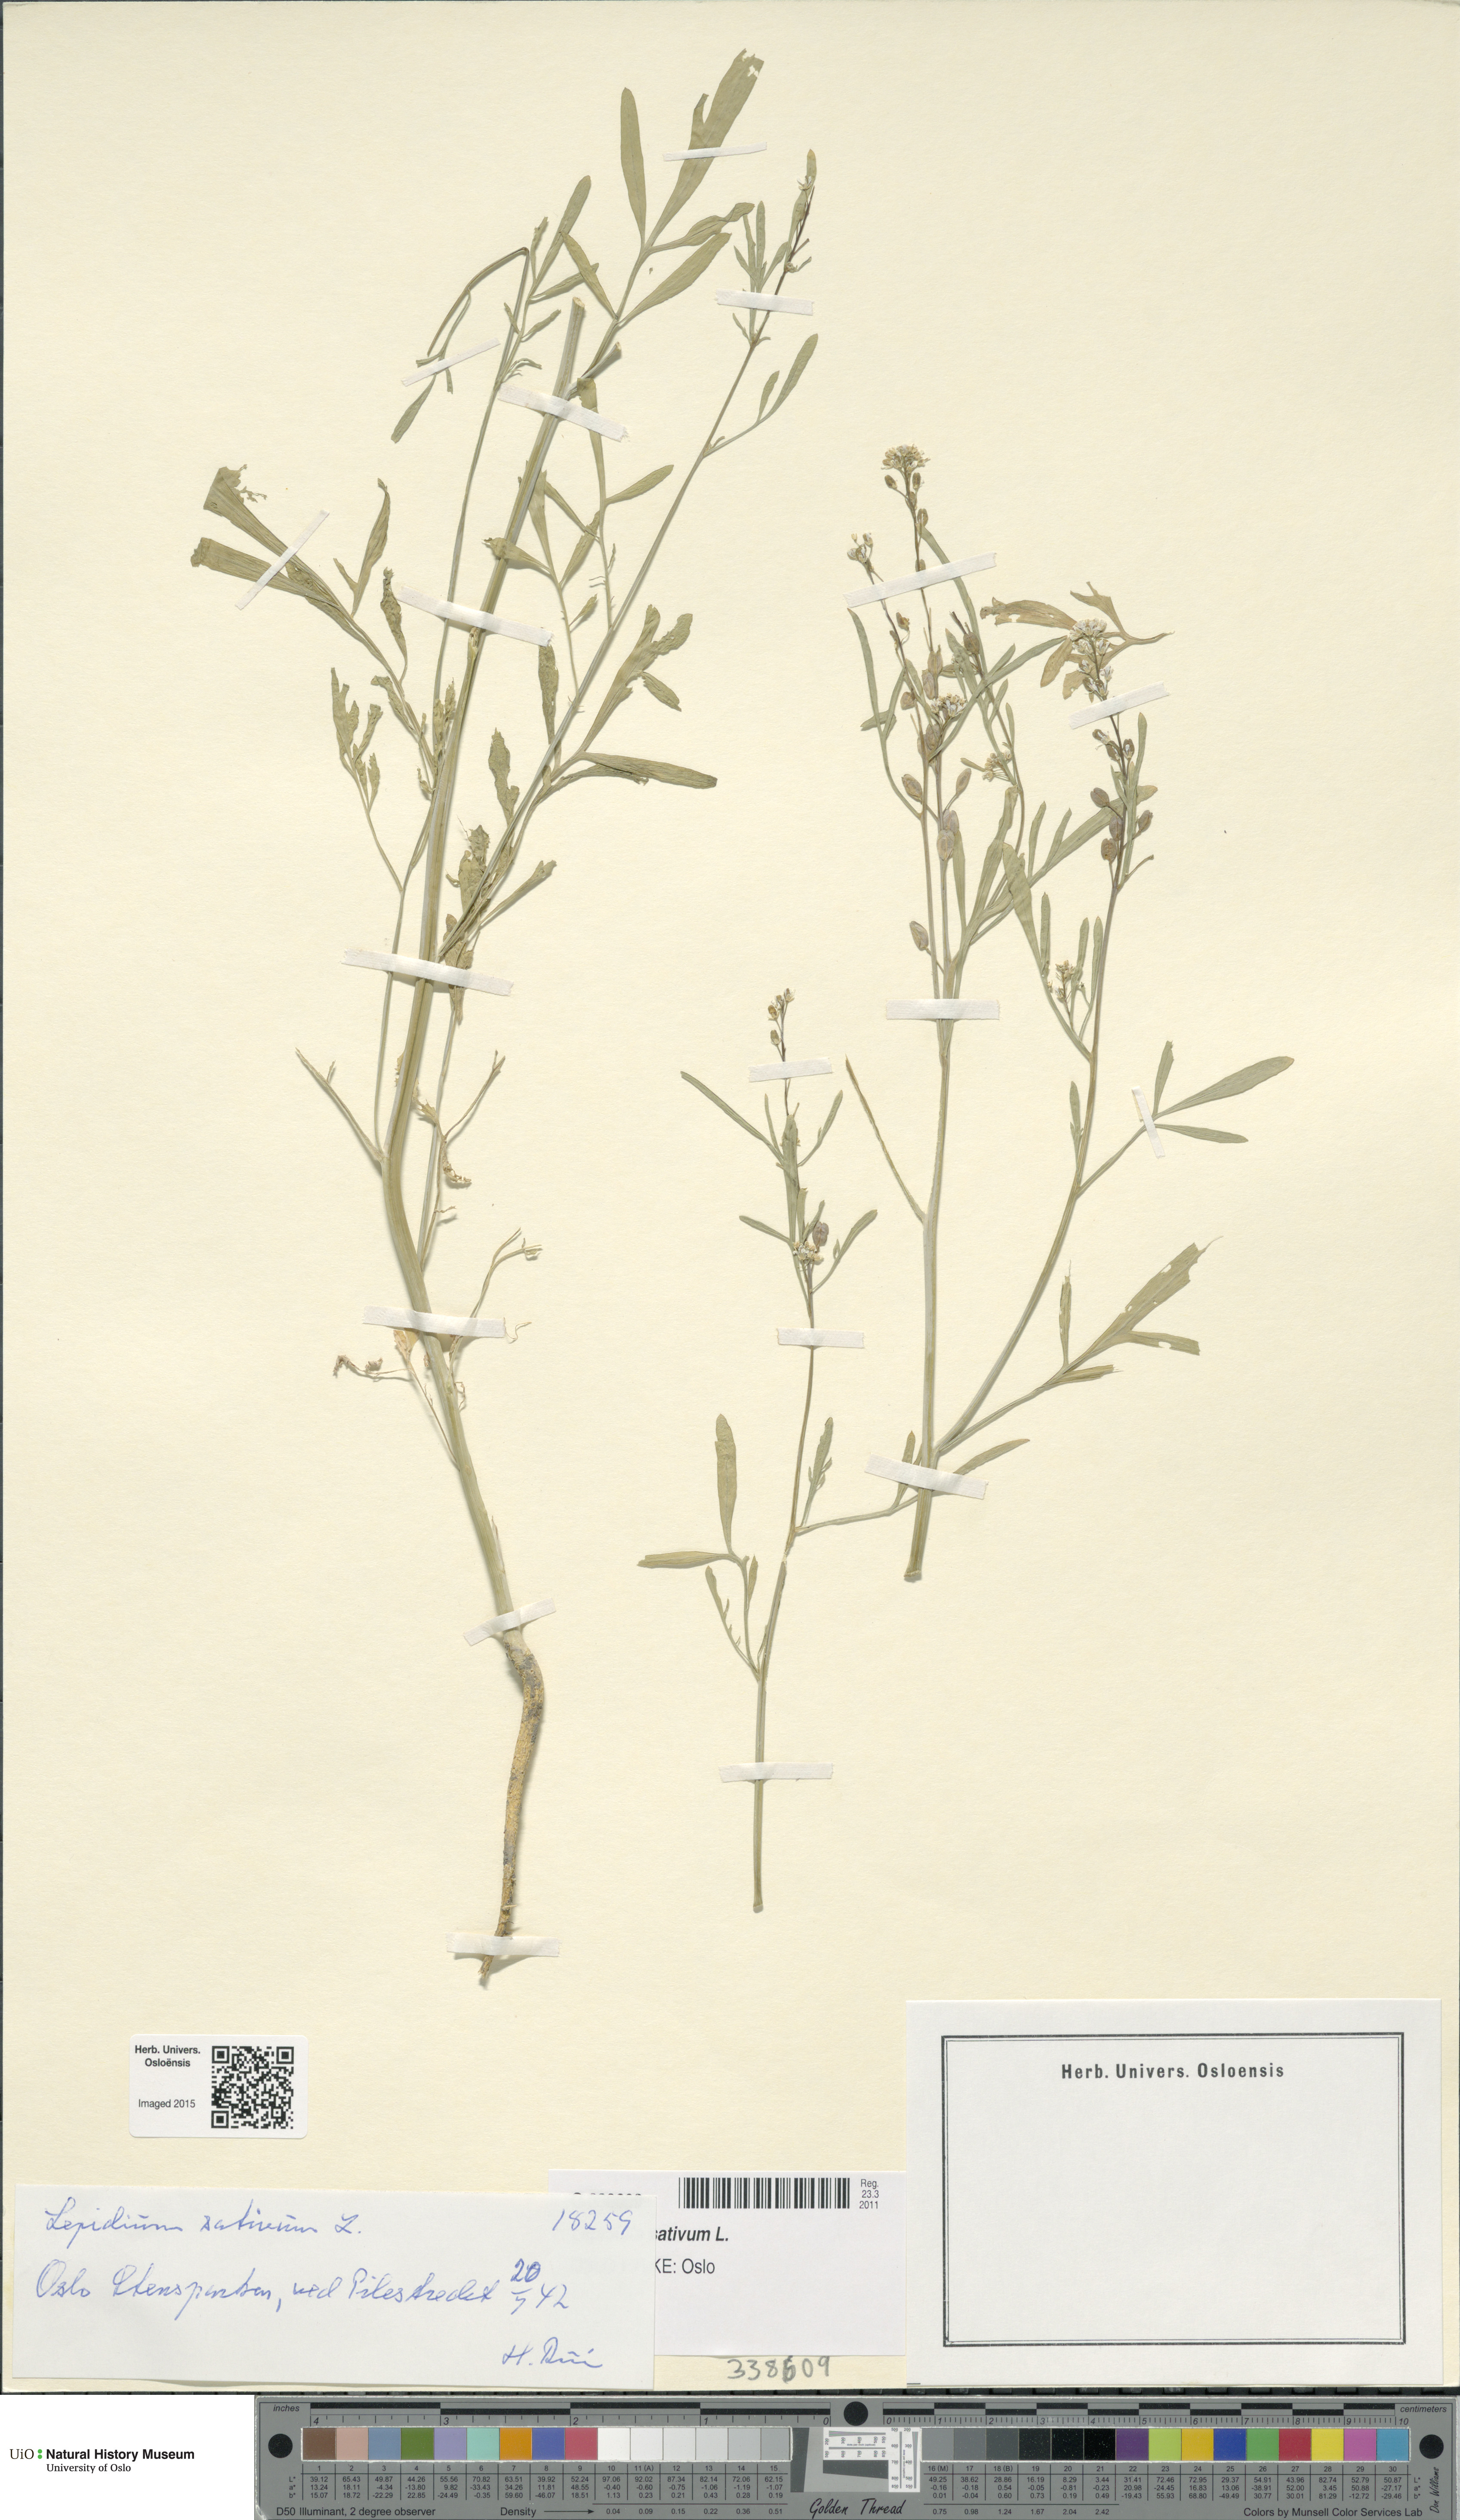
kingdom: Plantae
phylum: Tracheophyta
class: Magnoliopsida
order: Brassicales
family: Brassicaceae
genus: Lepidium
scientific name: Lepidium sativum
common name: Garden cress
